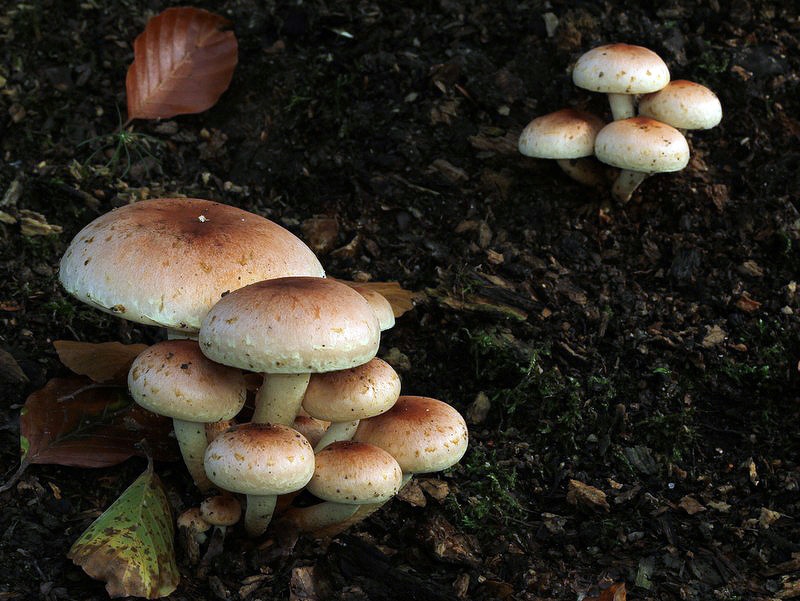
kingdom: Fungi
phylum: Basidiomycota
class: Agaricomycetes
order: Agaricales
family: Strophariaceae
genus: Hypholoma
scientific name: Hypholoma lateritium
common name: teglrød svovlhat
